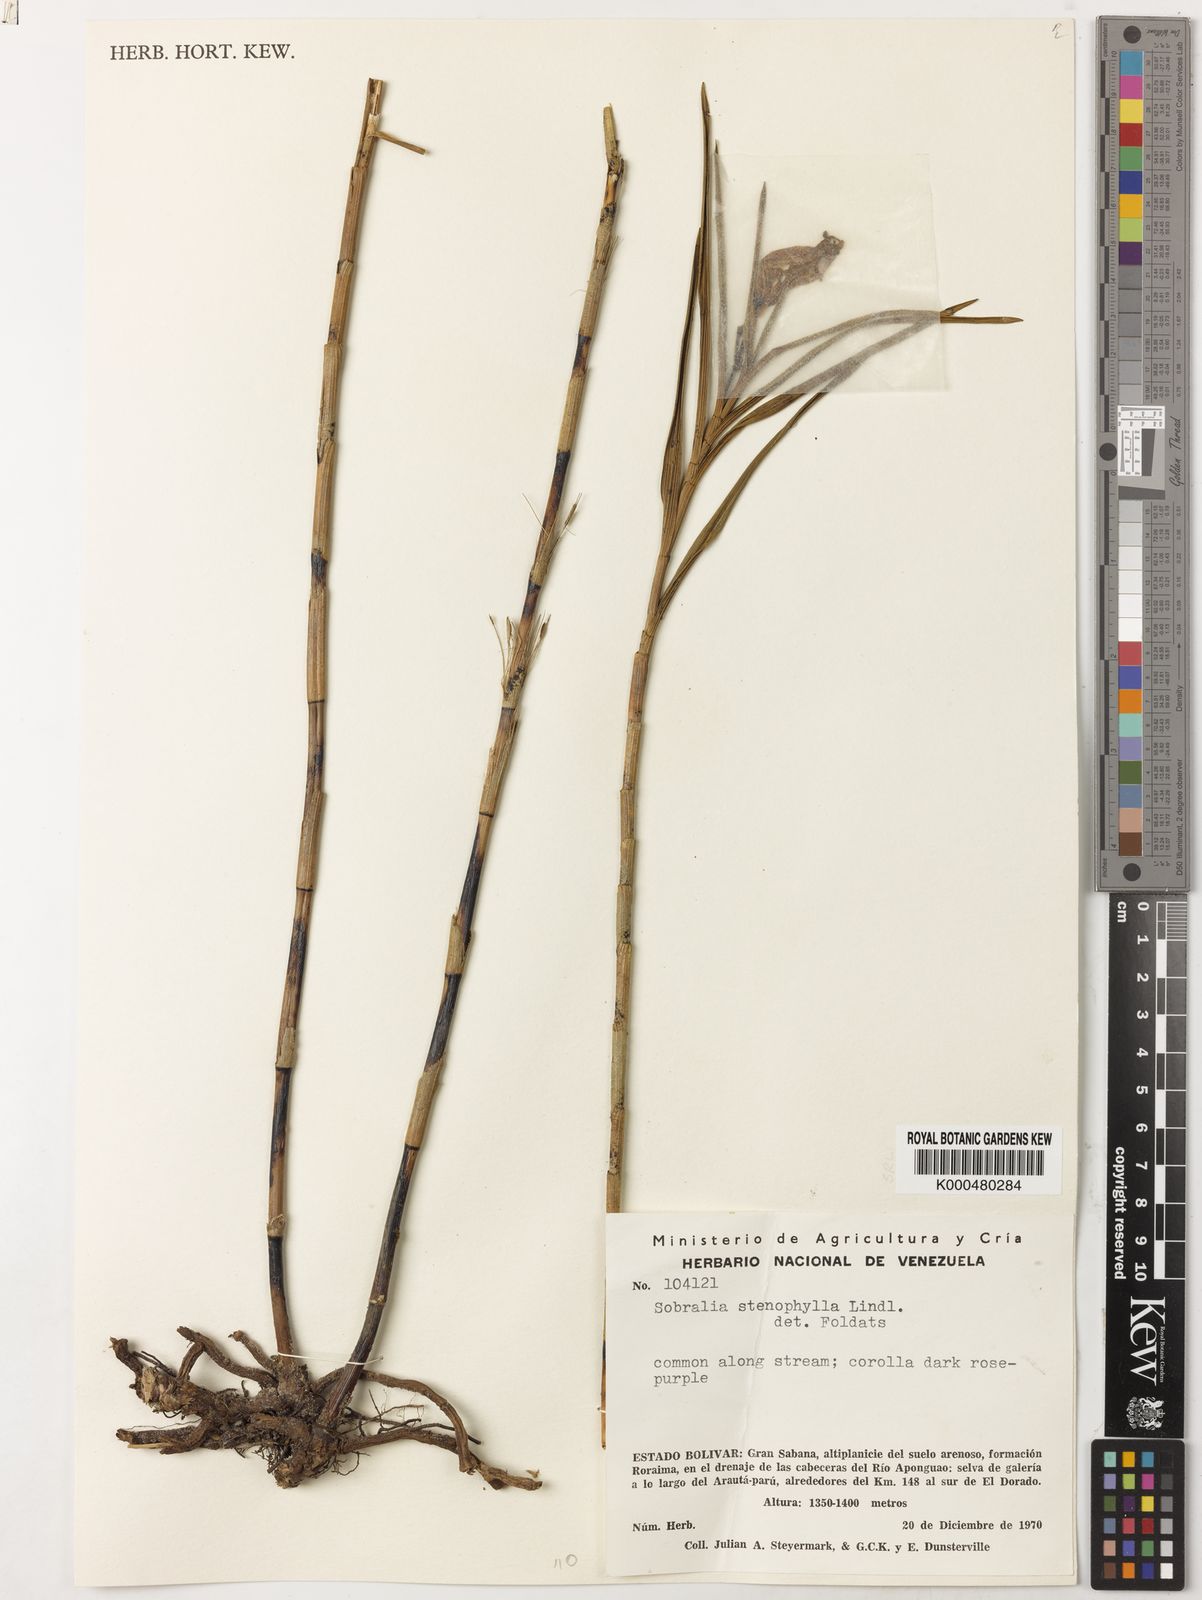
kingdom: Plantae
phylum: Tracheophyta
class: Liliopsida
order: Asparagales
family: Orchidaceae
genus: Sobralia
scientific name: Sobralia stenophylla
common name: Thin leafed sobralia
